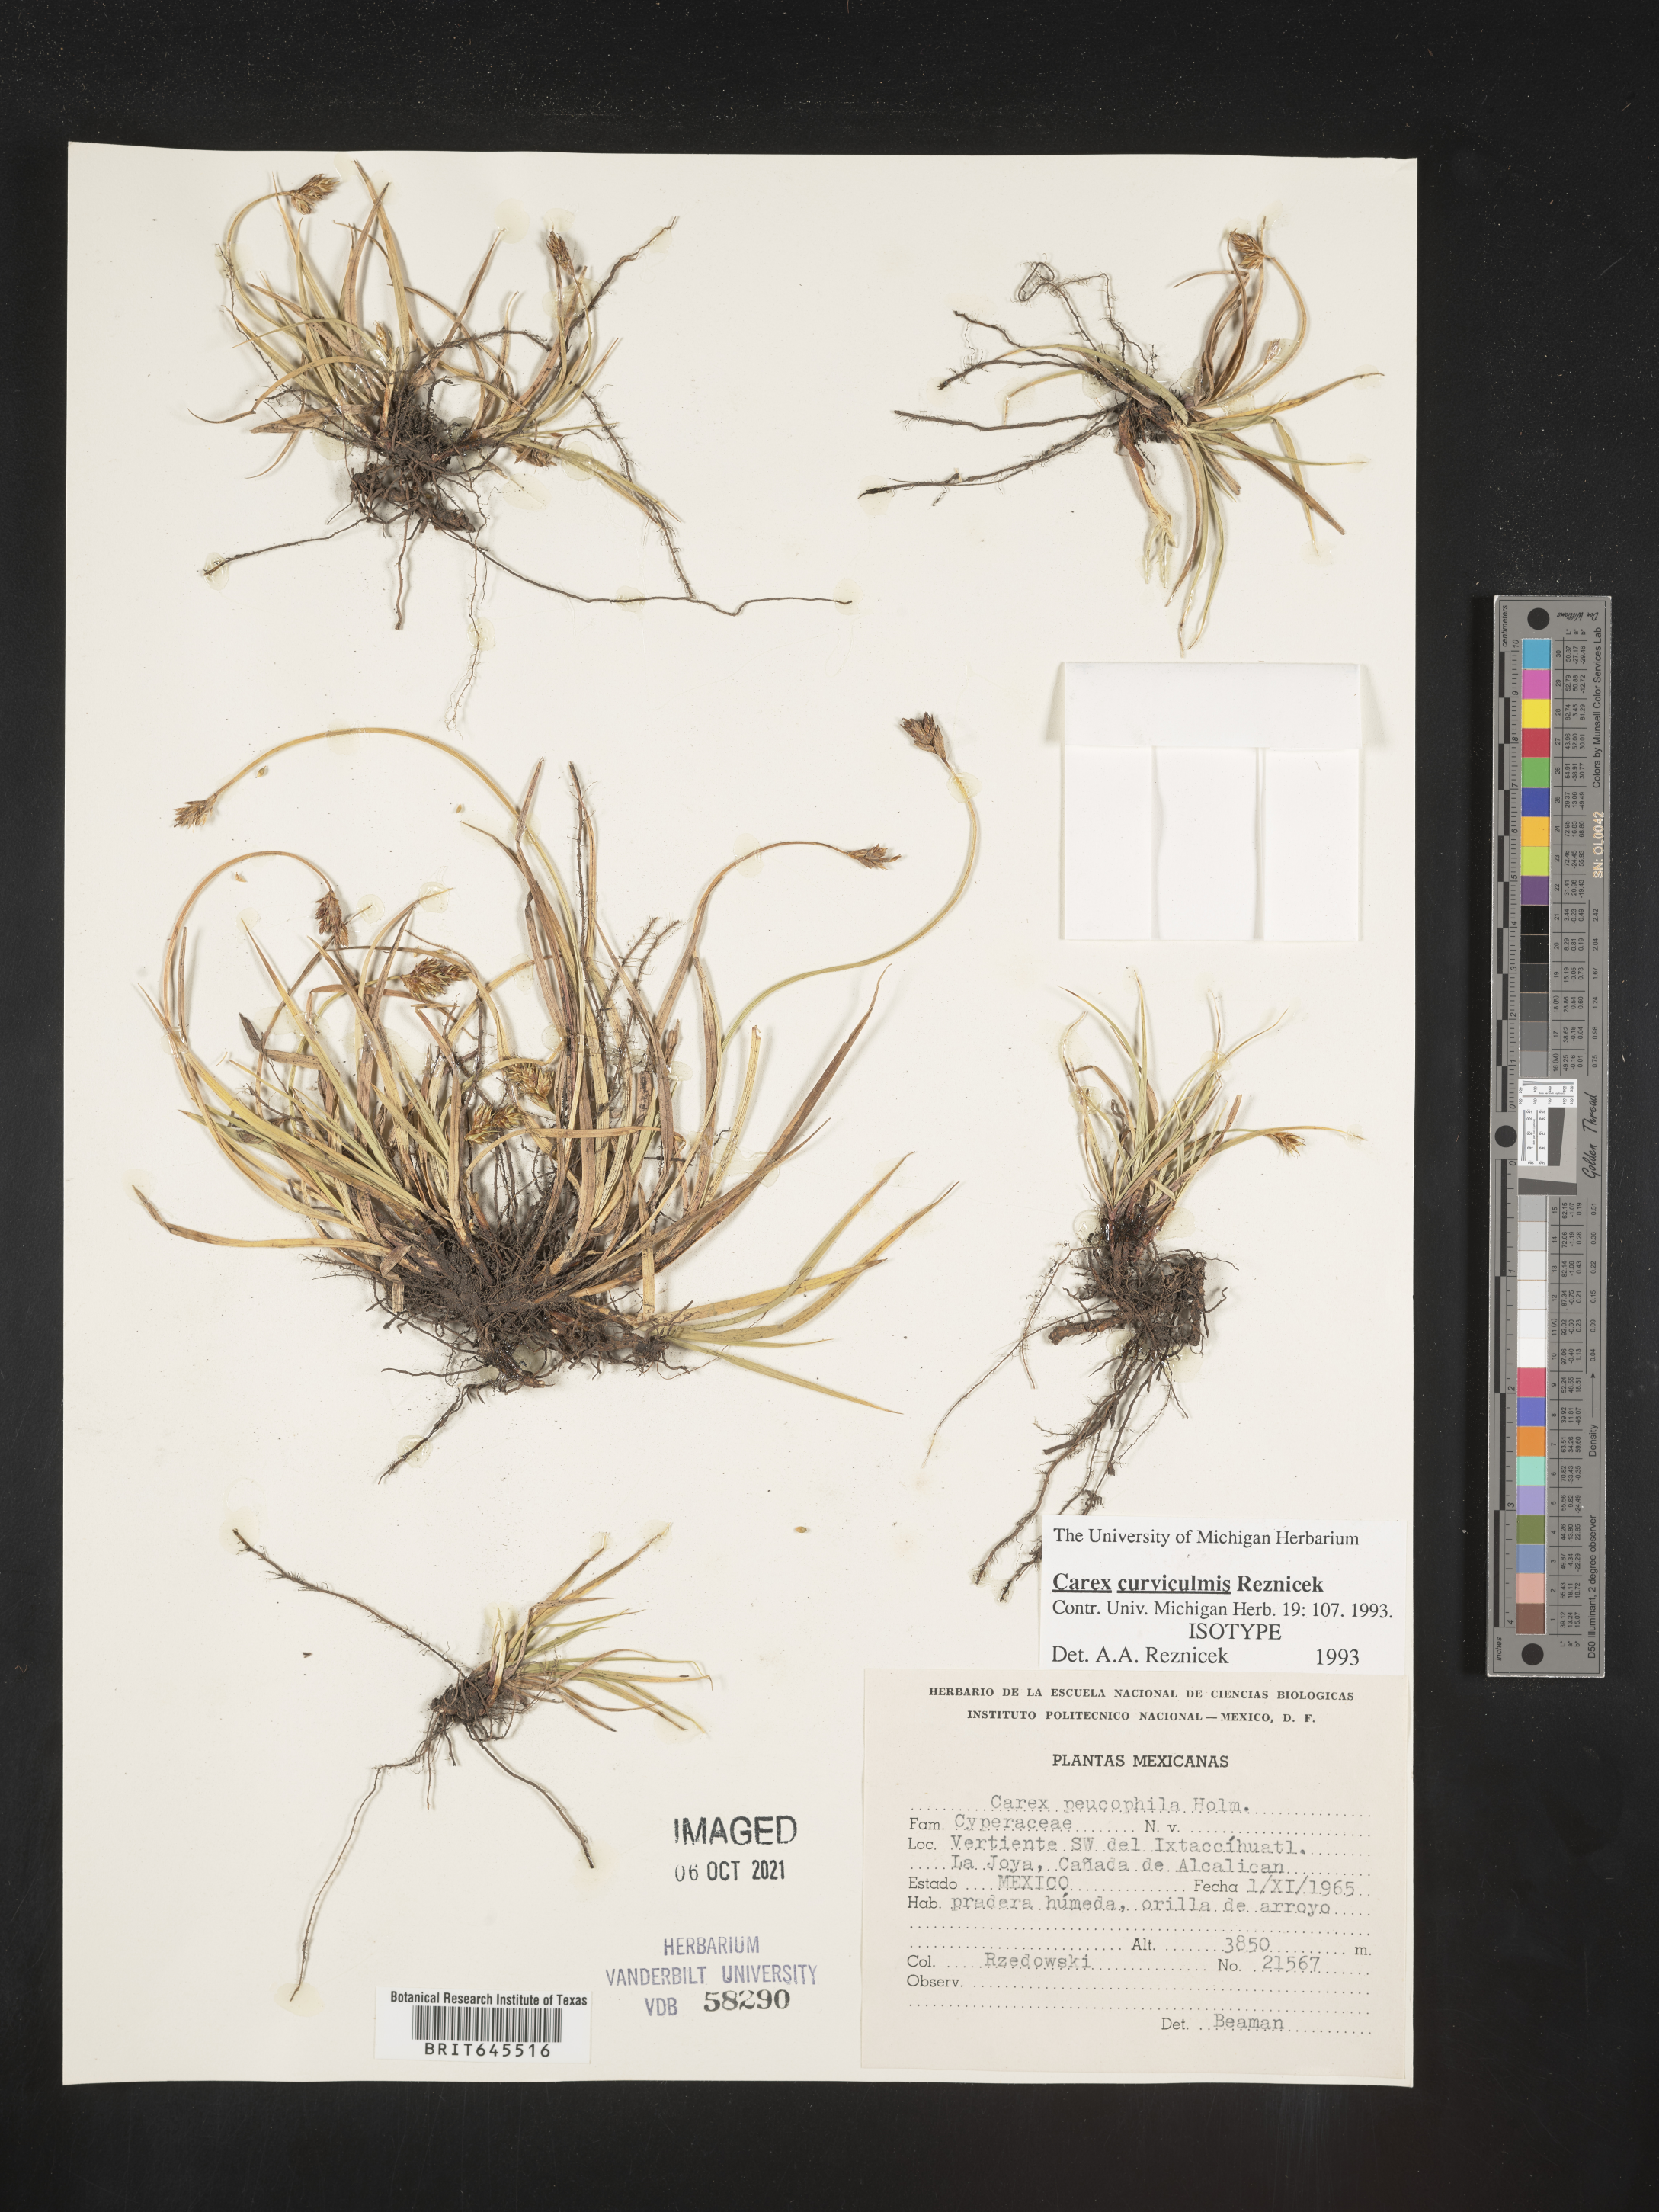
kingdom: Plantae
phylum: Tracheophyta
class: Liliopsida
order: Poales
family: Cyperaceae
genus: Carex
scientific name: Carex
